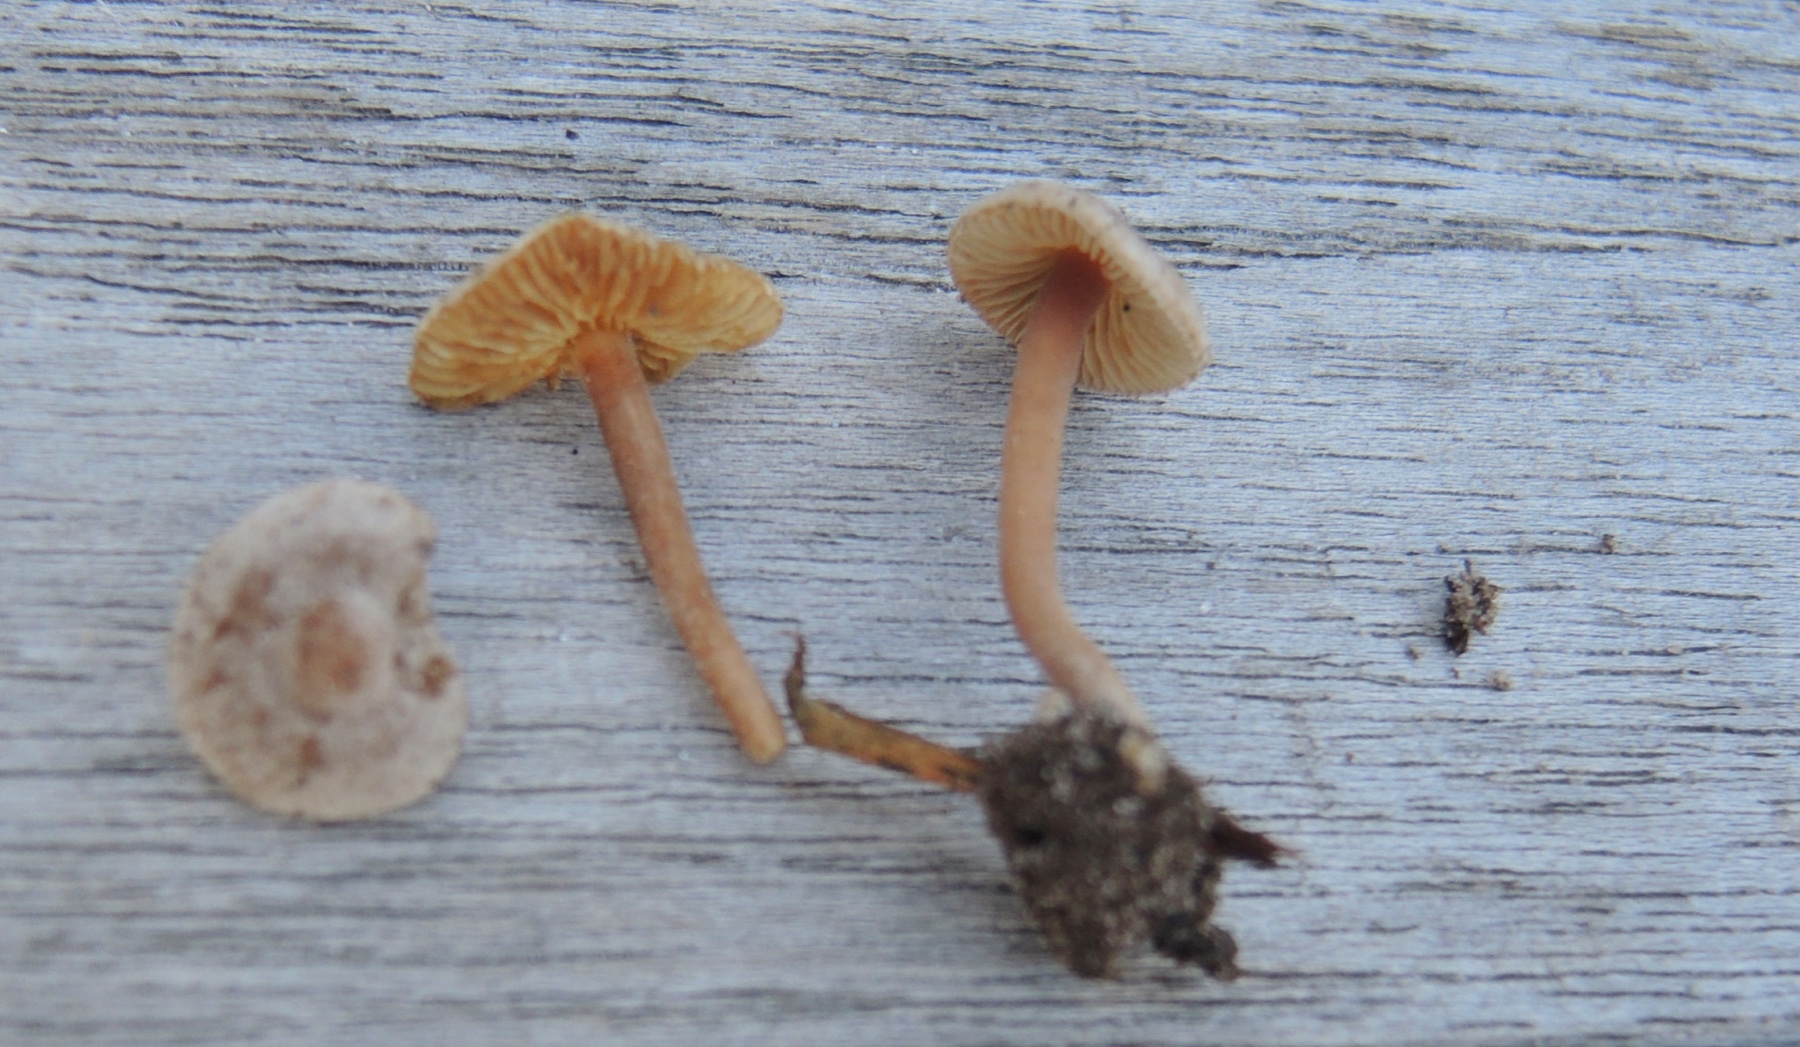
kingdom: Fungi
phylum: Basidiomycota
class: Agaricomycetes
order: Agaricales
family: Inocybaceae
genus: Inocybe
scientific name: Inocybe petiginosa
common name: liden trævlhat
